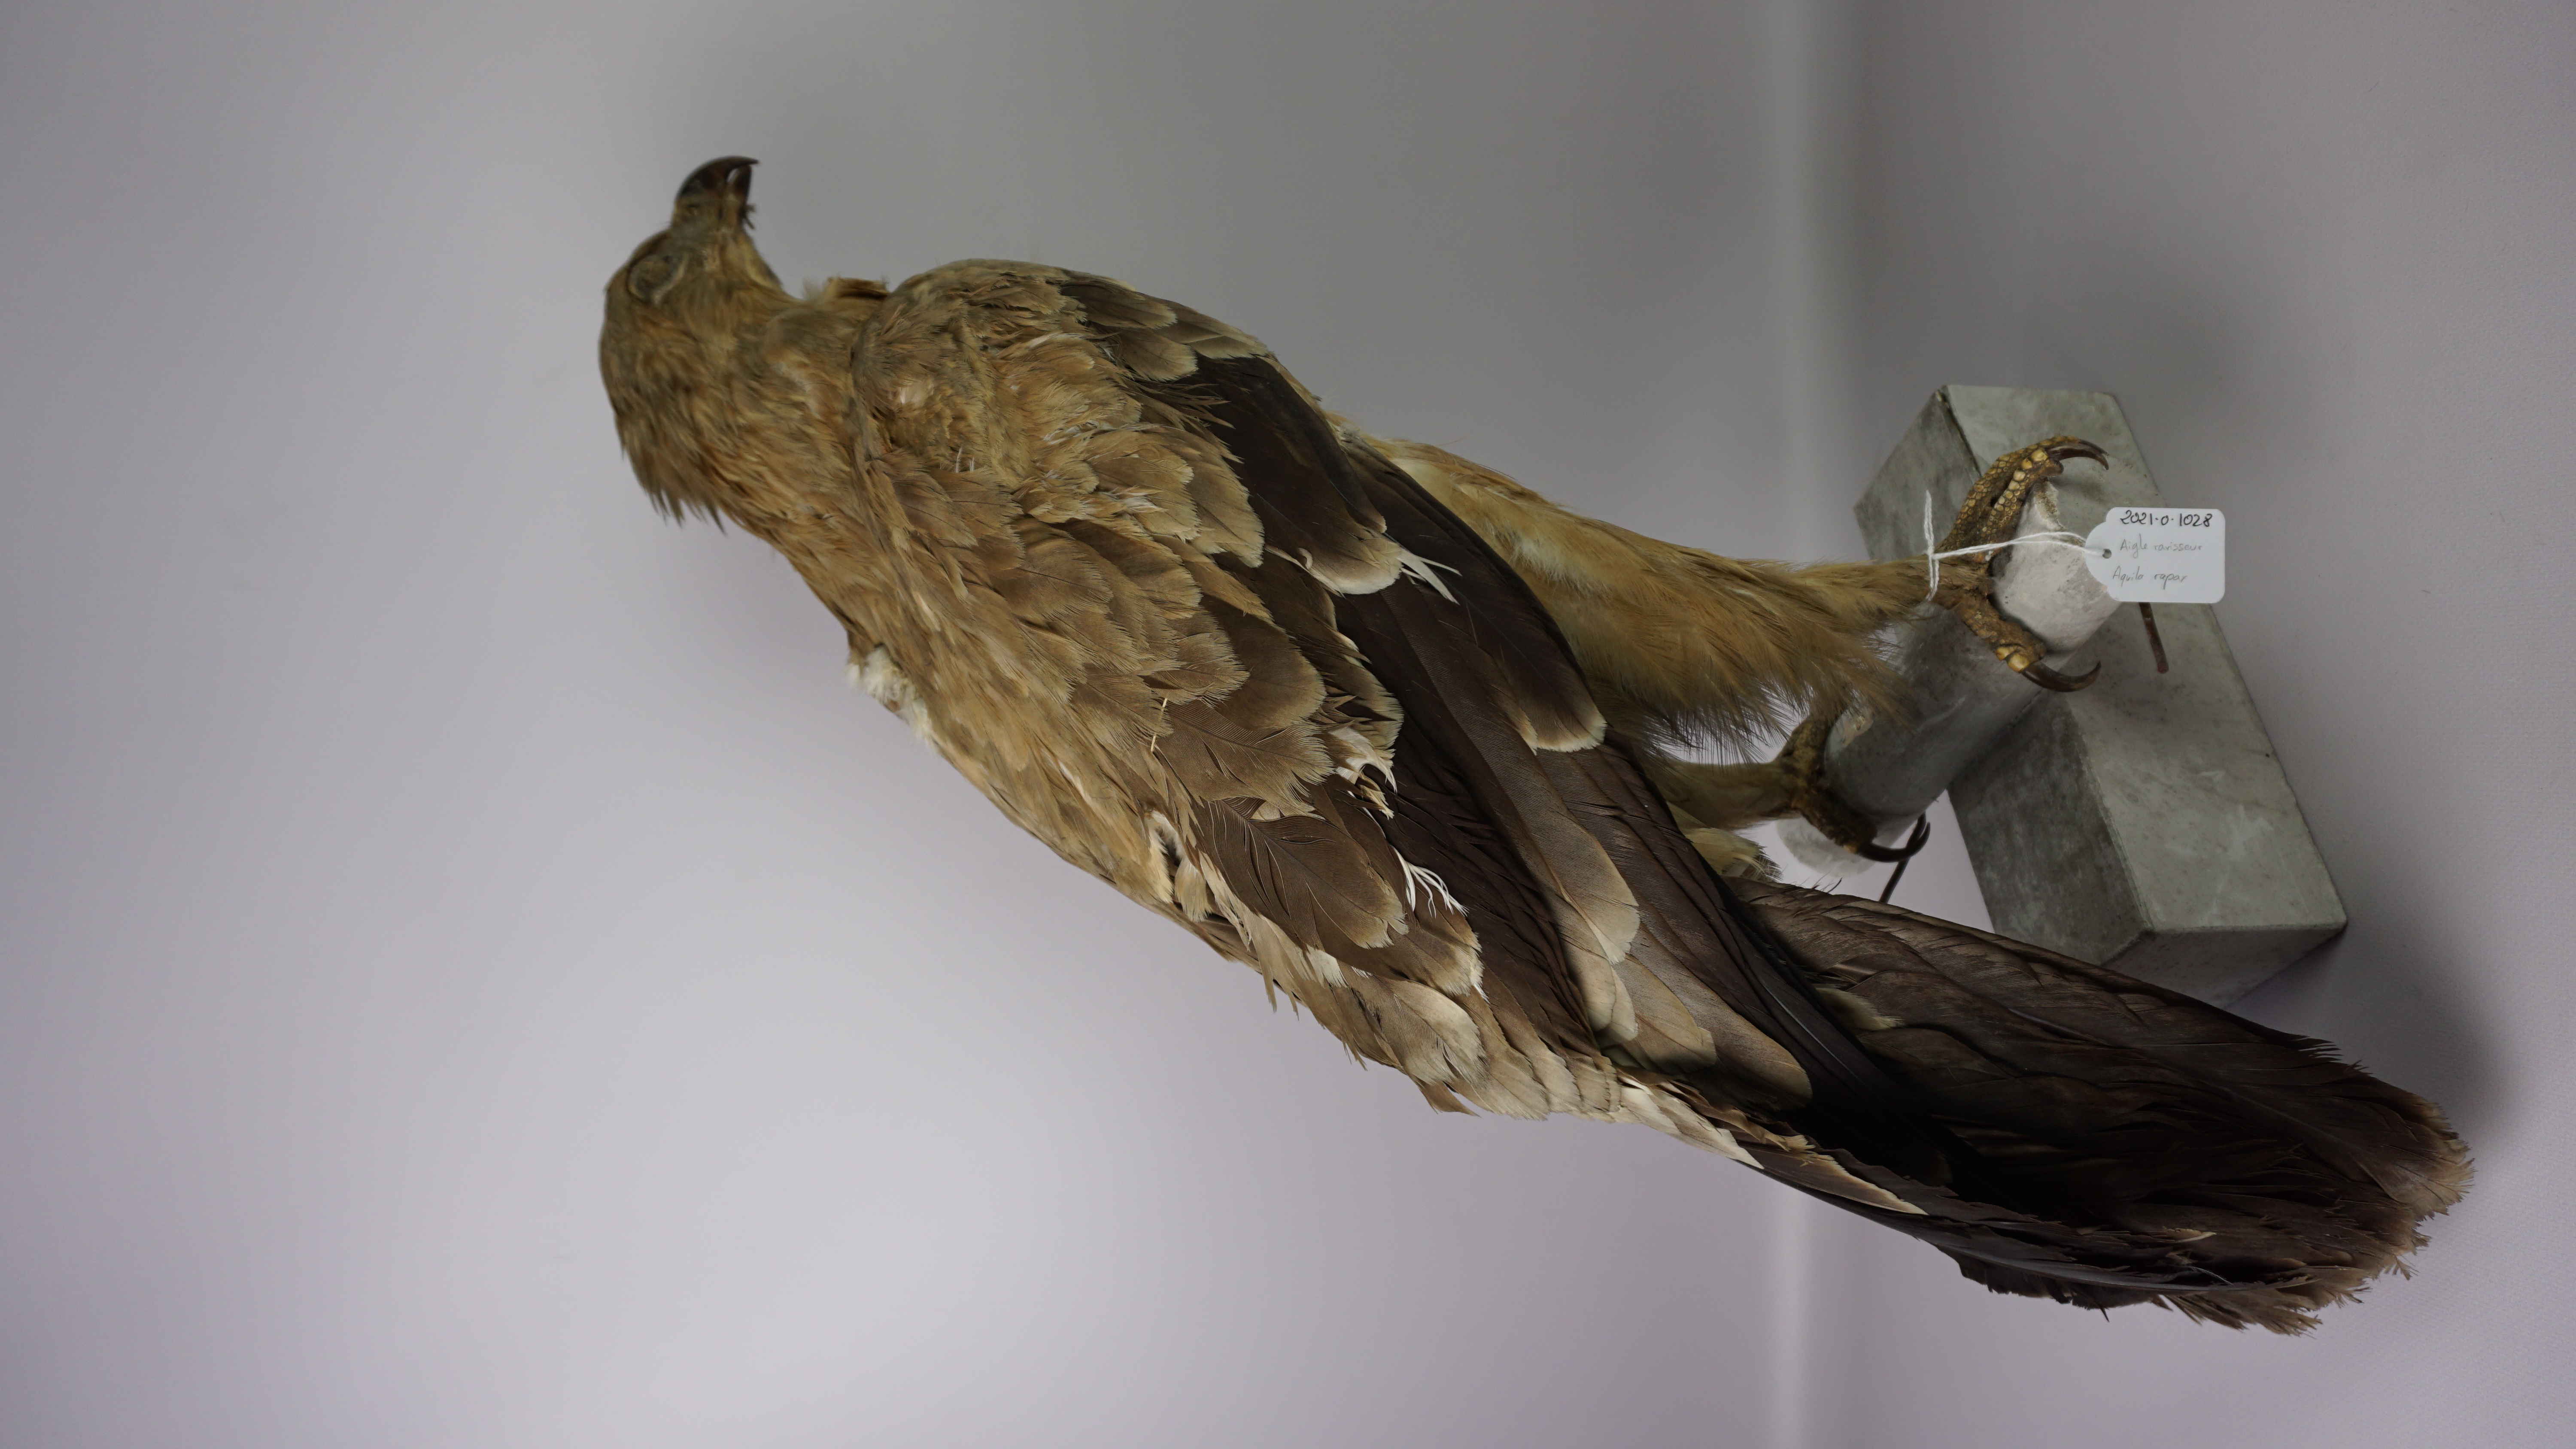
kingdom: Animalia
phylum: Chordata
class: Aves
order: Accipitriformes
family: Accipitridae
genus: Aquila
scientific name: Aquila rapax
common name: Tawny eagle
